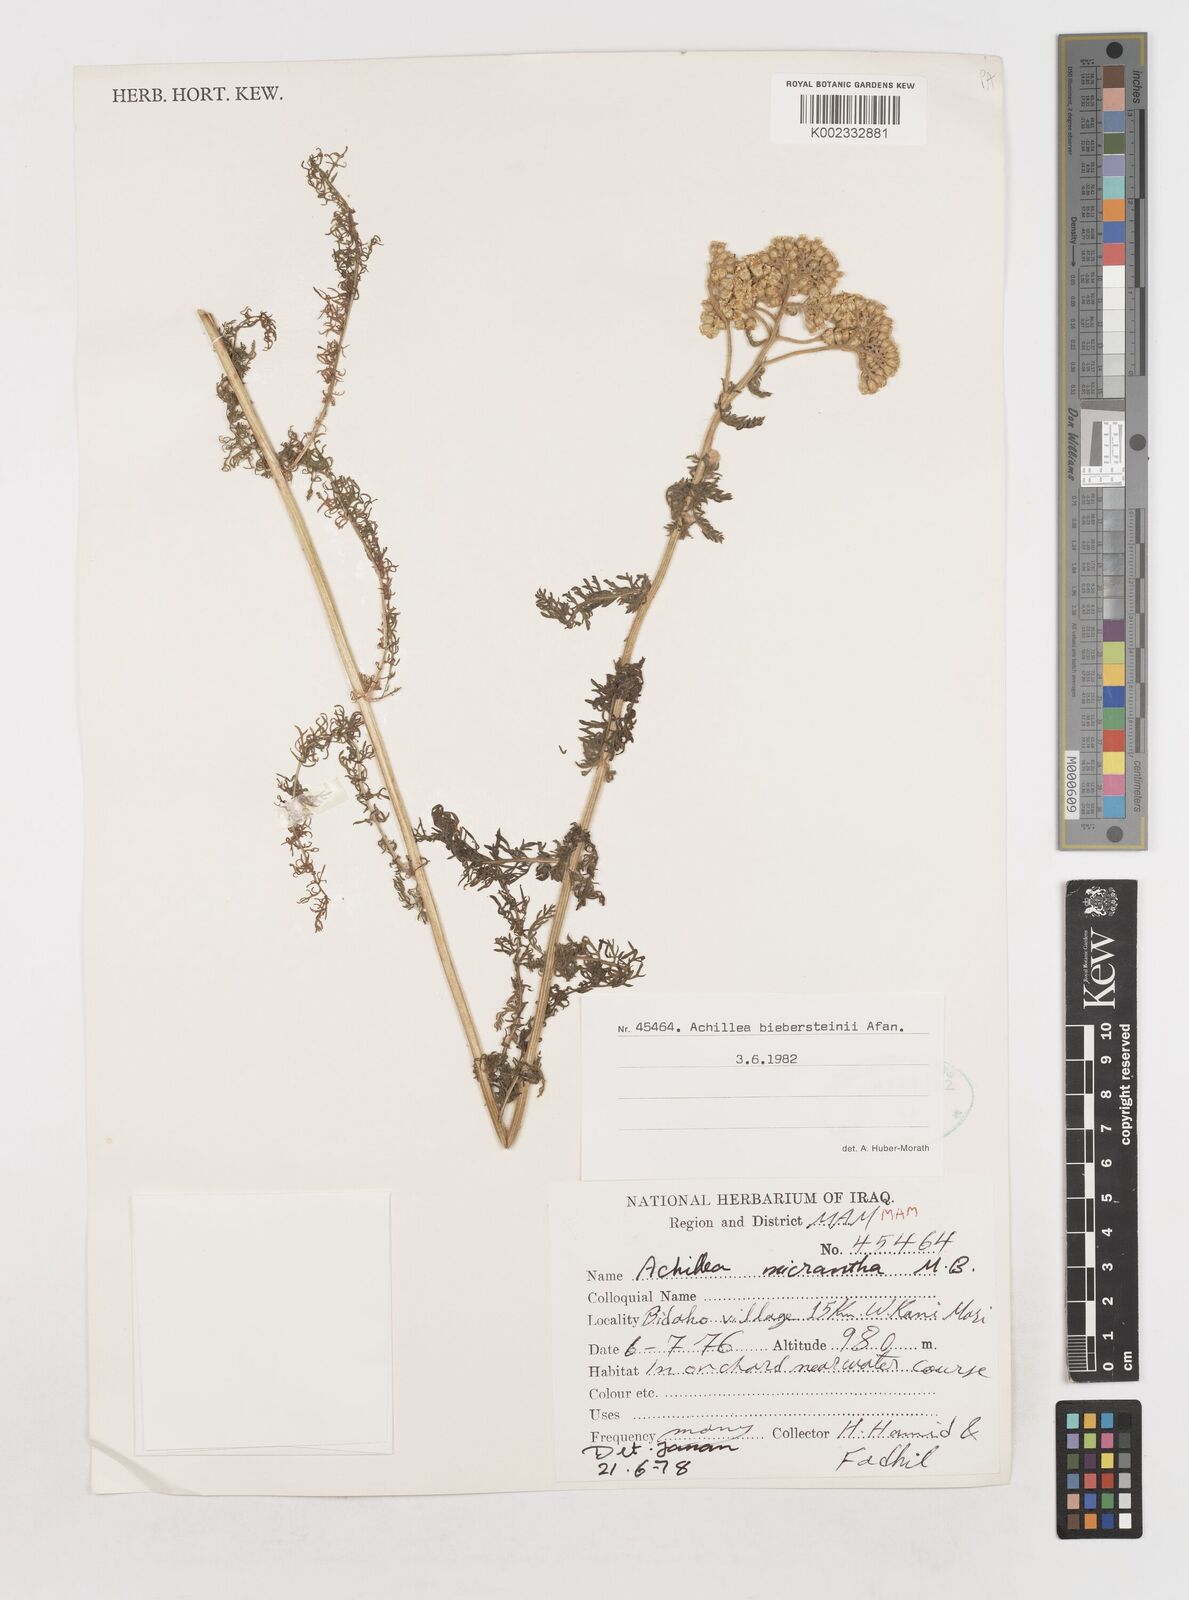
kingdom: Plantae
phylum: Tracheophyta
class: Magnoliopsida
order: Asterales
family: Asteraceae
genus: Achillea
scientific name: Achillea arabica
